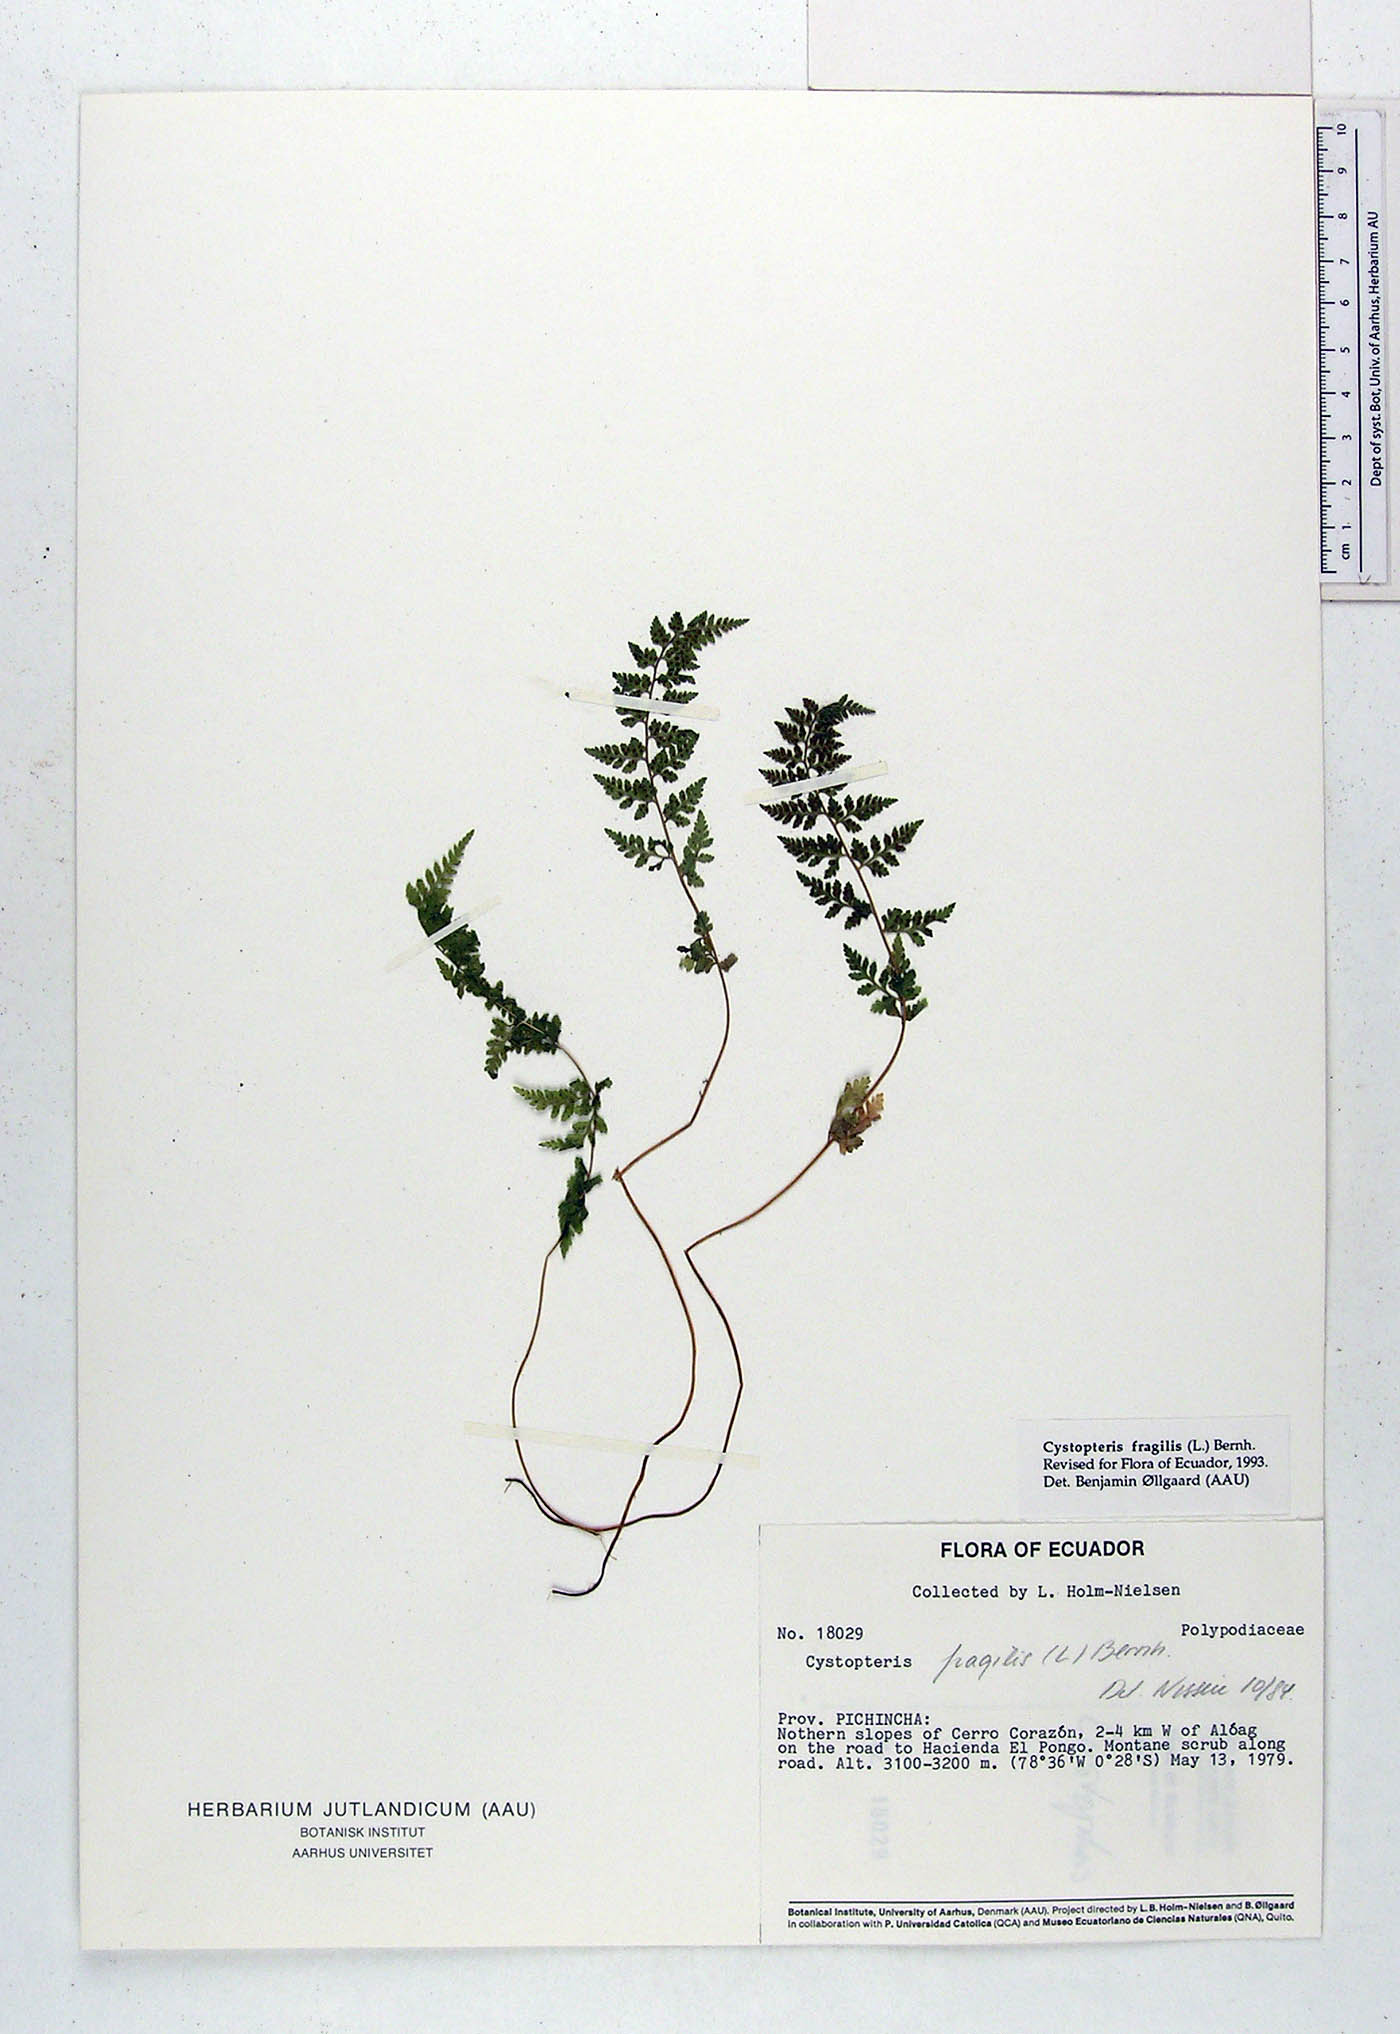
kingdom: Plantae
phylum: Tracheophyta
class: Polypodiopsida
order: Polypodiales
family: Cystopteridaceae
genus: Cystopteris
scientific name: Cystopteris fragilis
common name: Brittle bladder fern
